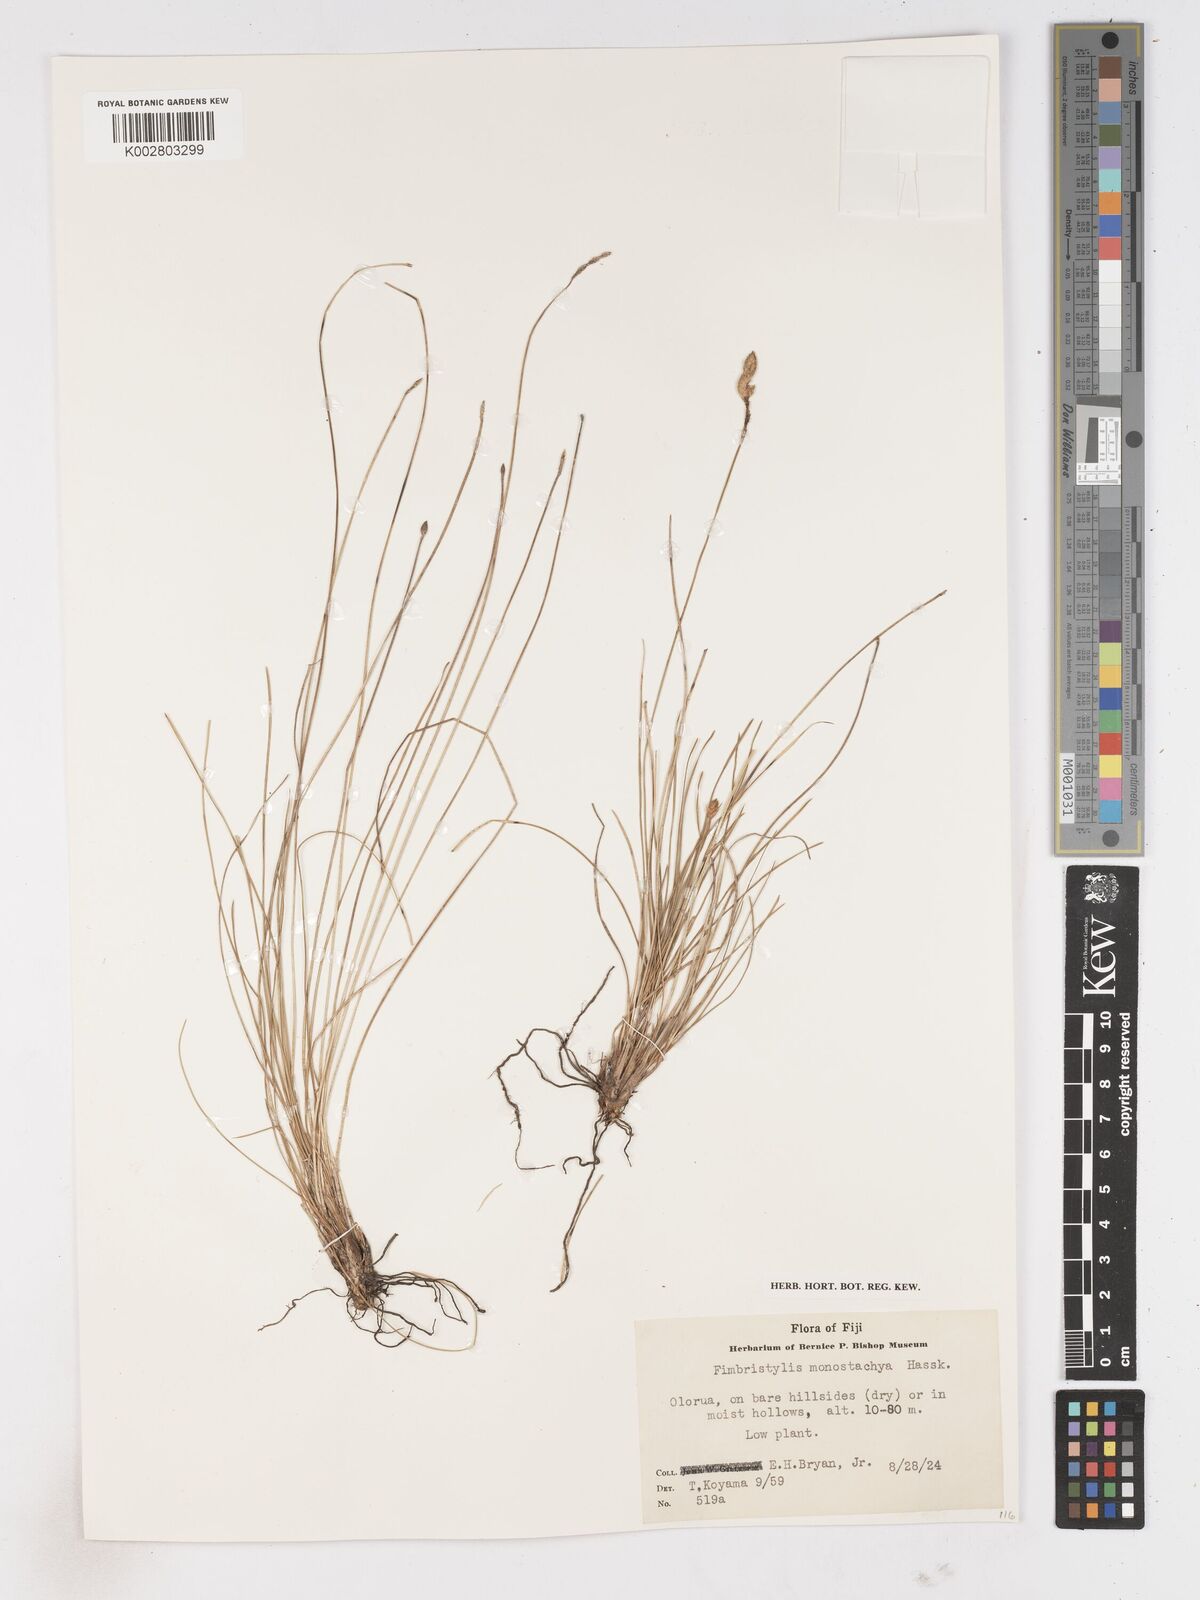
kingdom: Plantae
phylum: Tracheophyta
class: Liliopsida
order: Poales
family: Cyperaceae
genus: Abildgaardia
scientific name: Abildgaardia ovata
